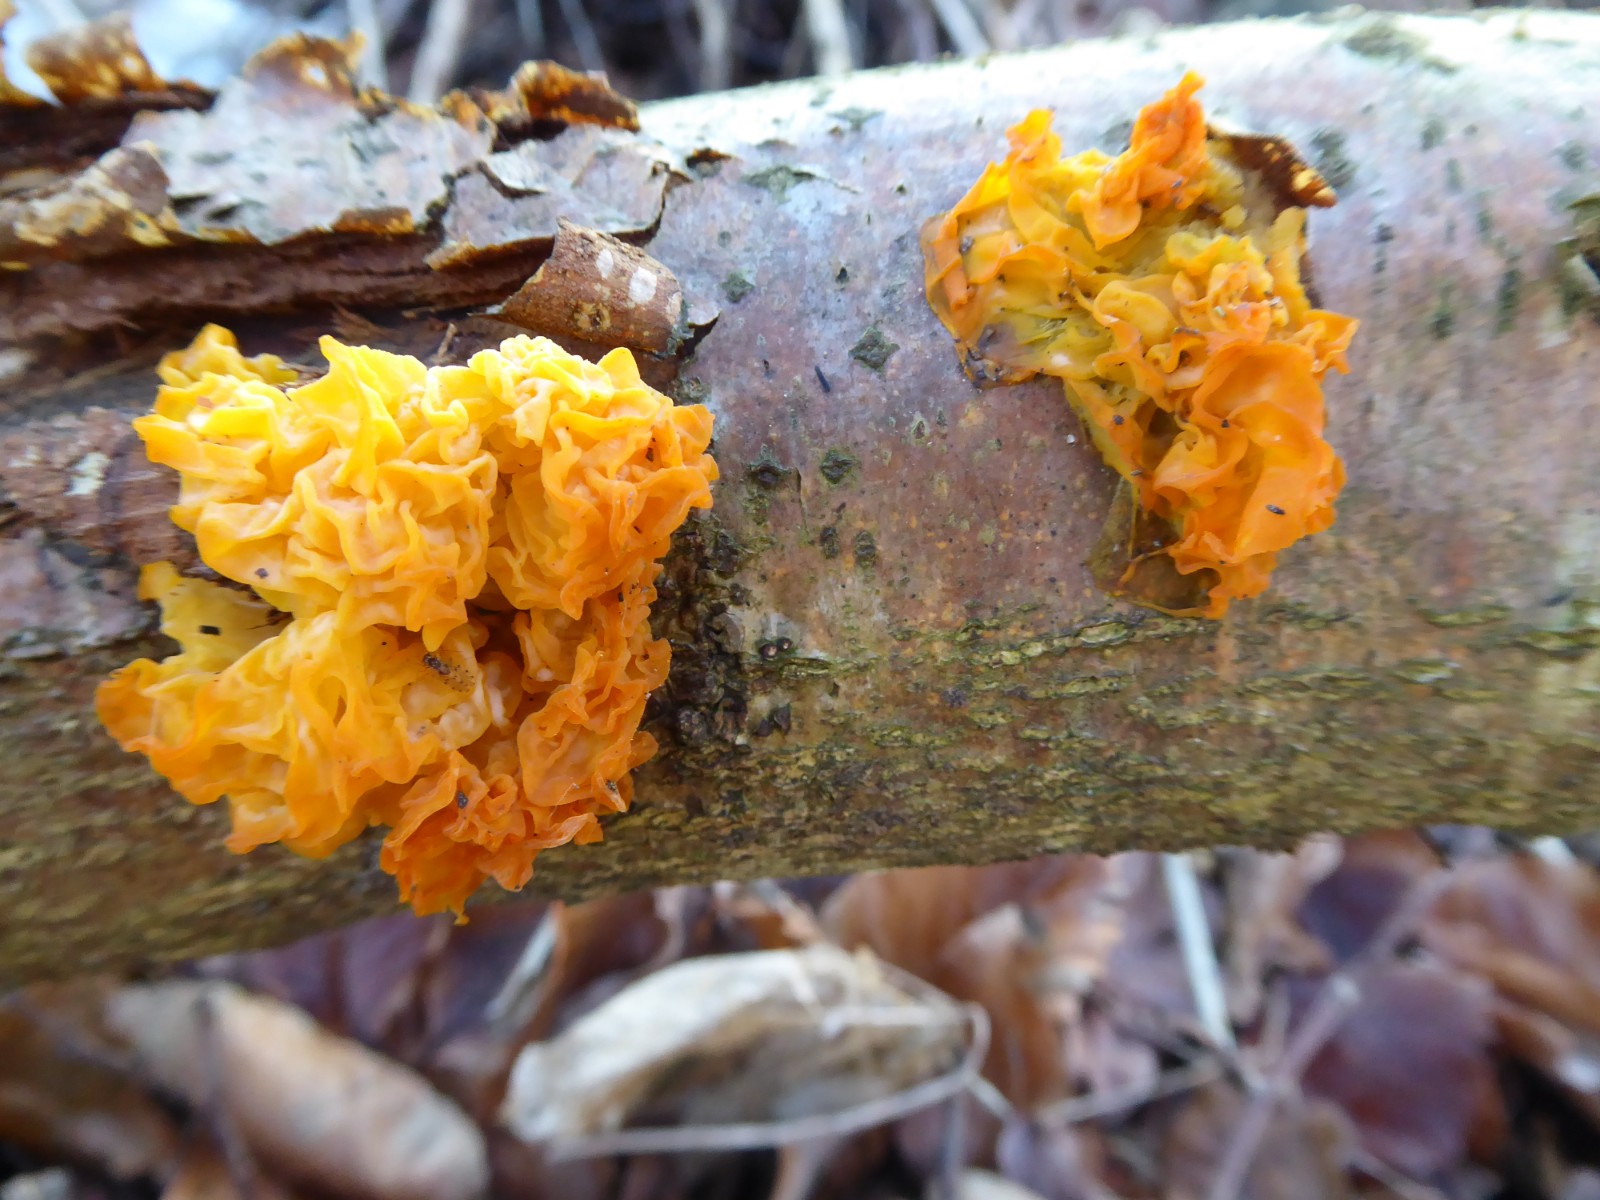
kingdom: Fungi
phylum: Basidiomycota
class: Tremellomycetes
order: Tremellales
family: Tremellaceae
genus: Tremella
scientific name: Tremella mesenterica
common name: gul bævresvamp
